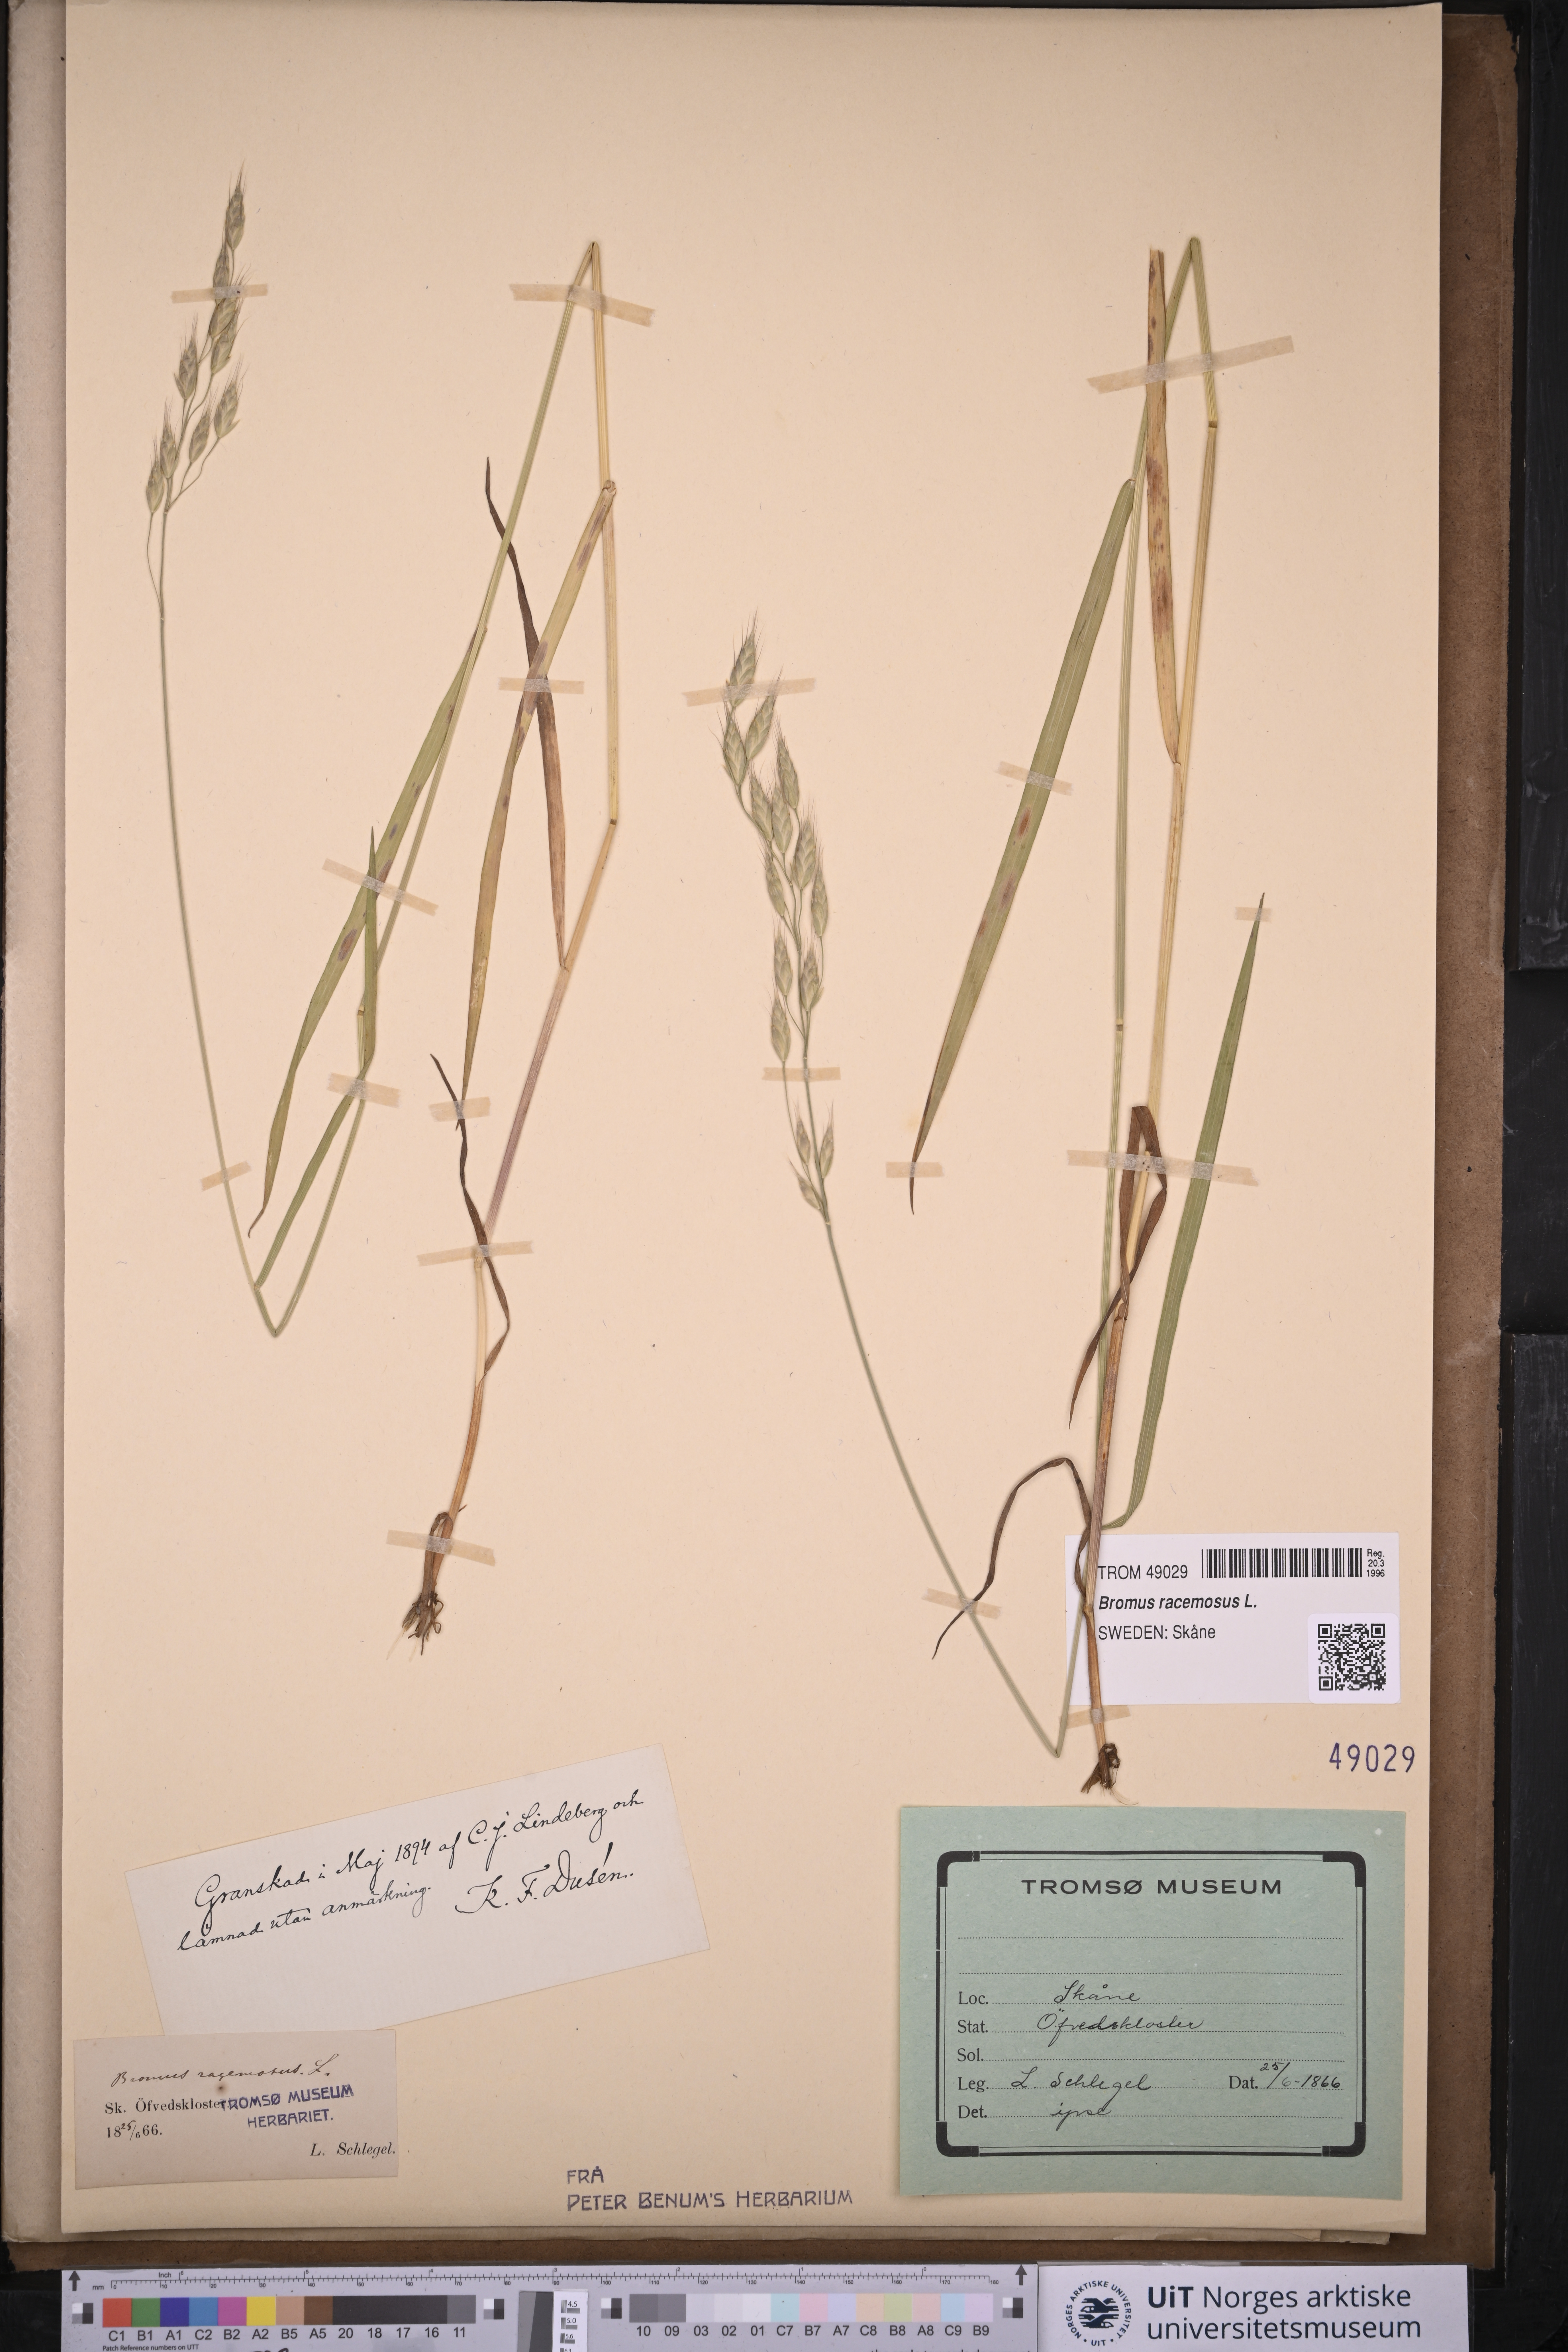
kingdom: Plantae
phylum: Tracheophyta
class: Liliopsida
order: Poales
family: Poaceae
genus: Bromus
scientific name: Bromus racemosus
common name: Bald brome
